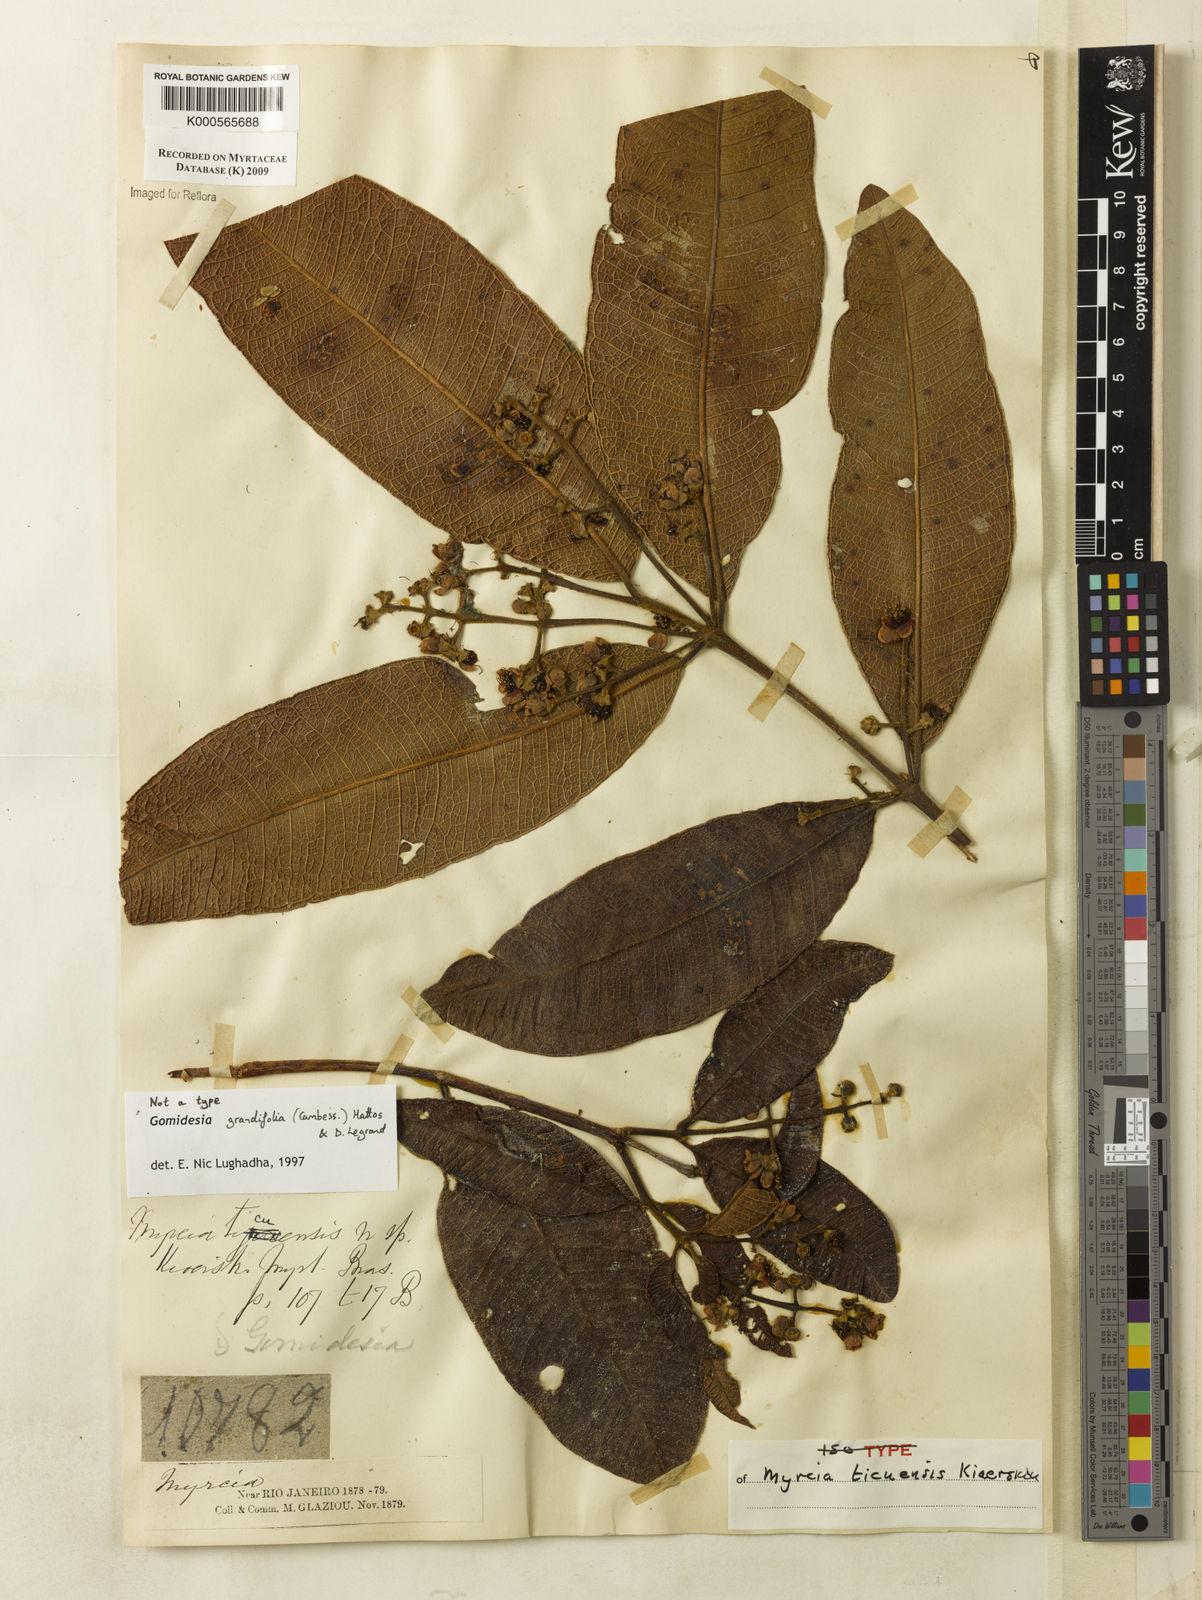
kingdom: Plantae
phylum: Tracheophyta
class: Magnoliopsida
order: Myrtales
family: Myrtaceae
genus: Myrcia
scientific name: Myrcia grandifolia
